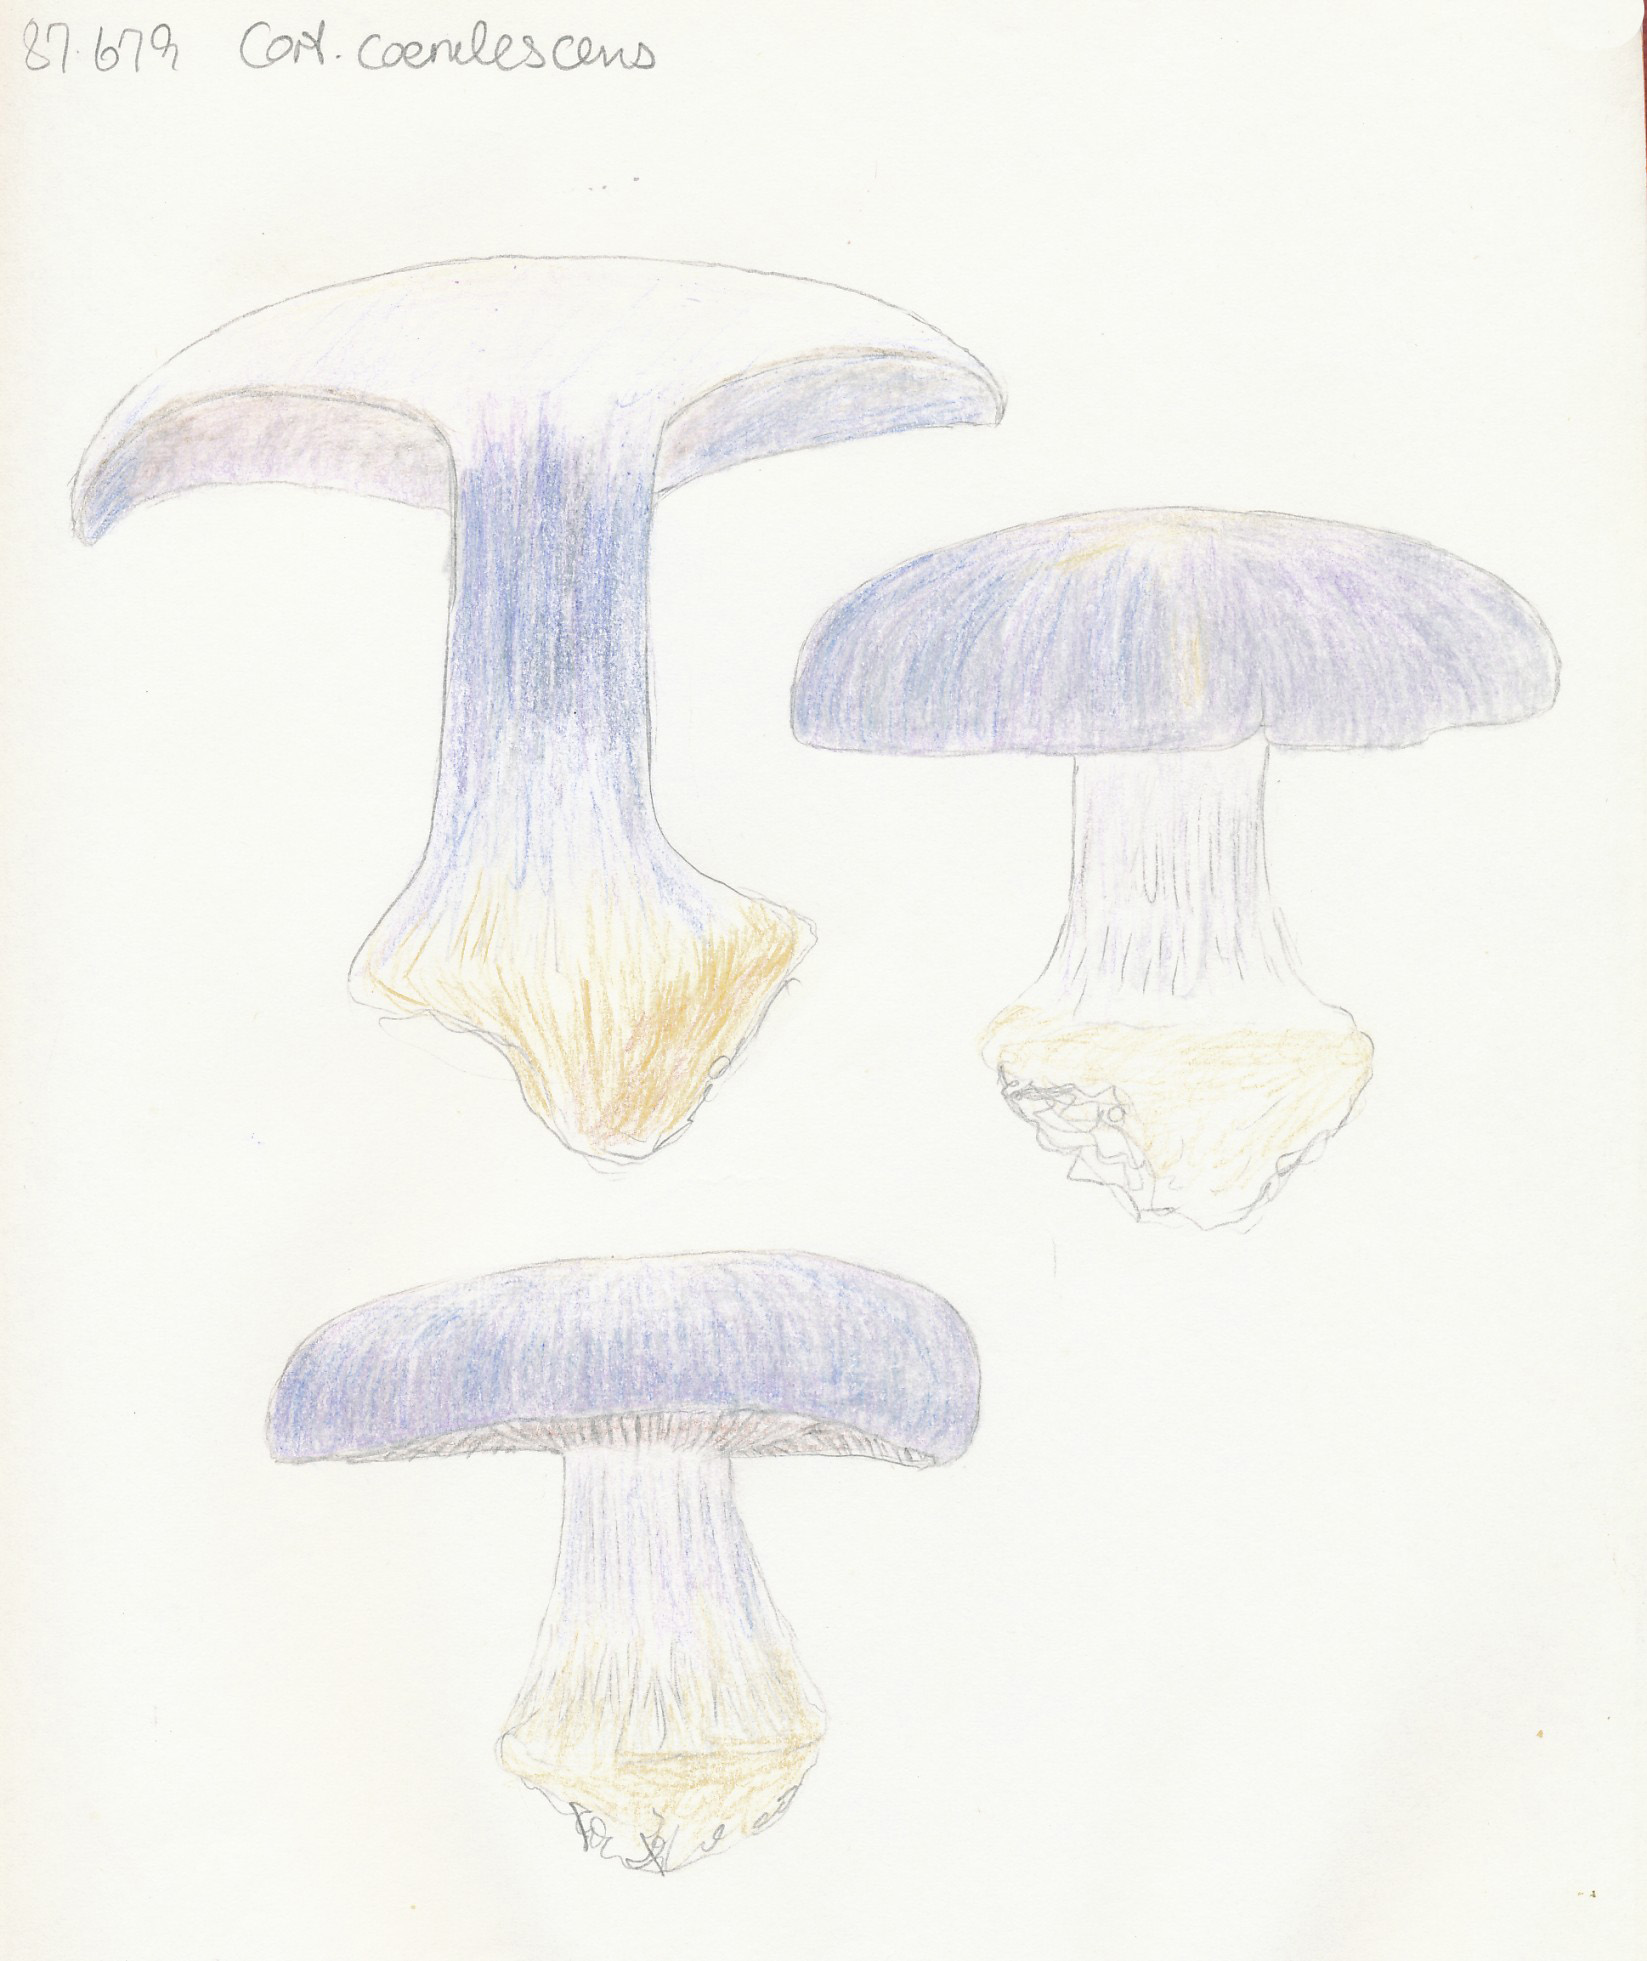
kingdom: Fungi
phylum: Basidiomycota
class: Agaricomycetes
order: Agaricales
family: Cortinariaceae
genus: Cortinarius
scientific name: Cortinarius caerulescens
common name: blåkødet slørhat
